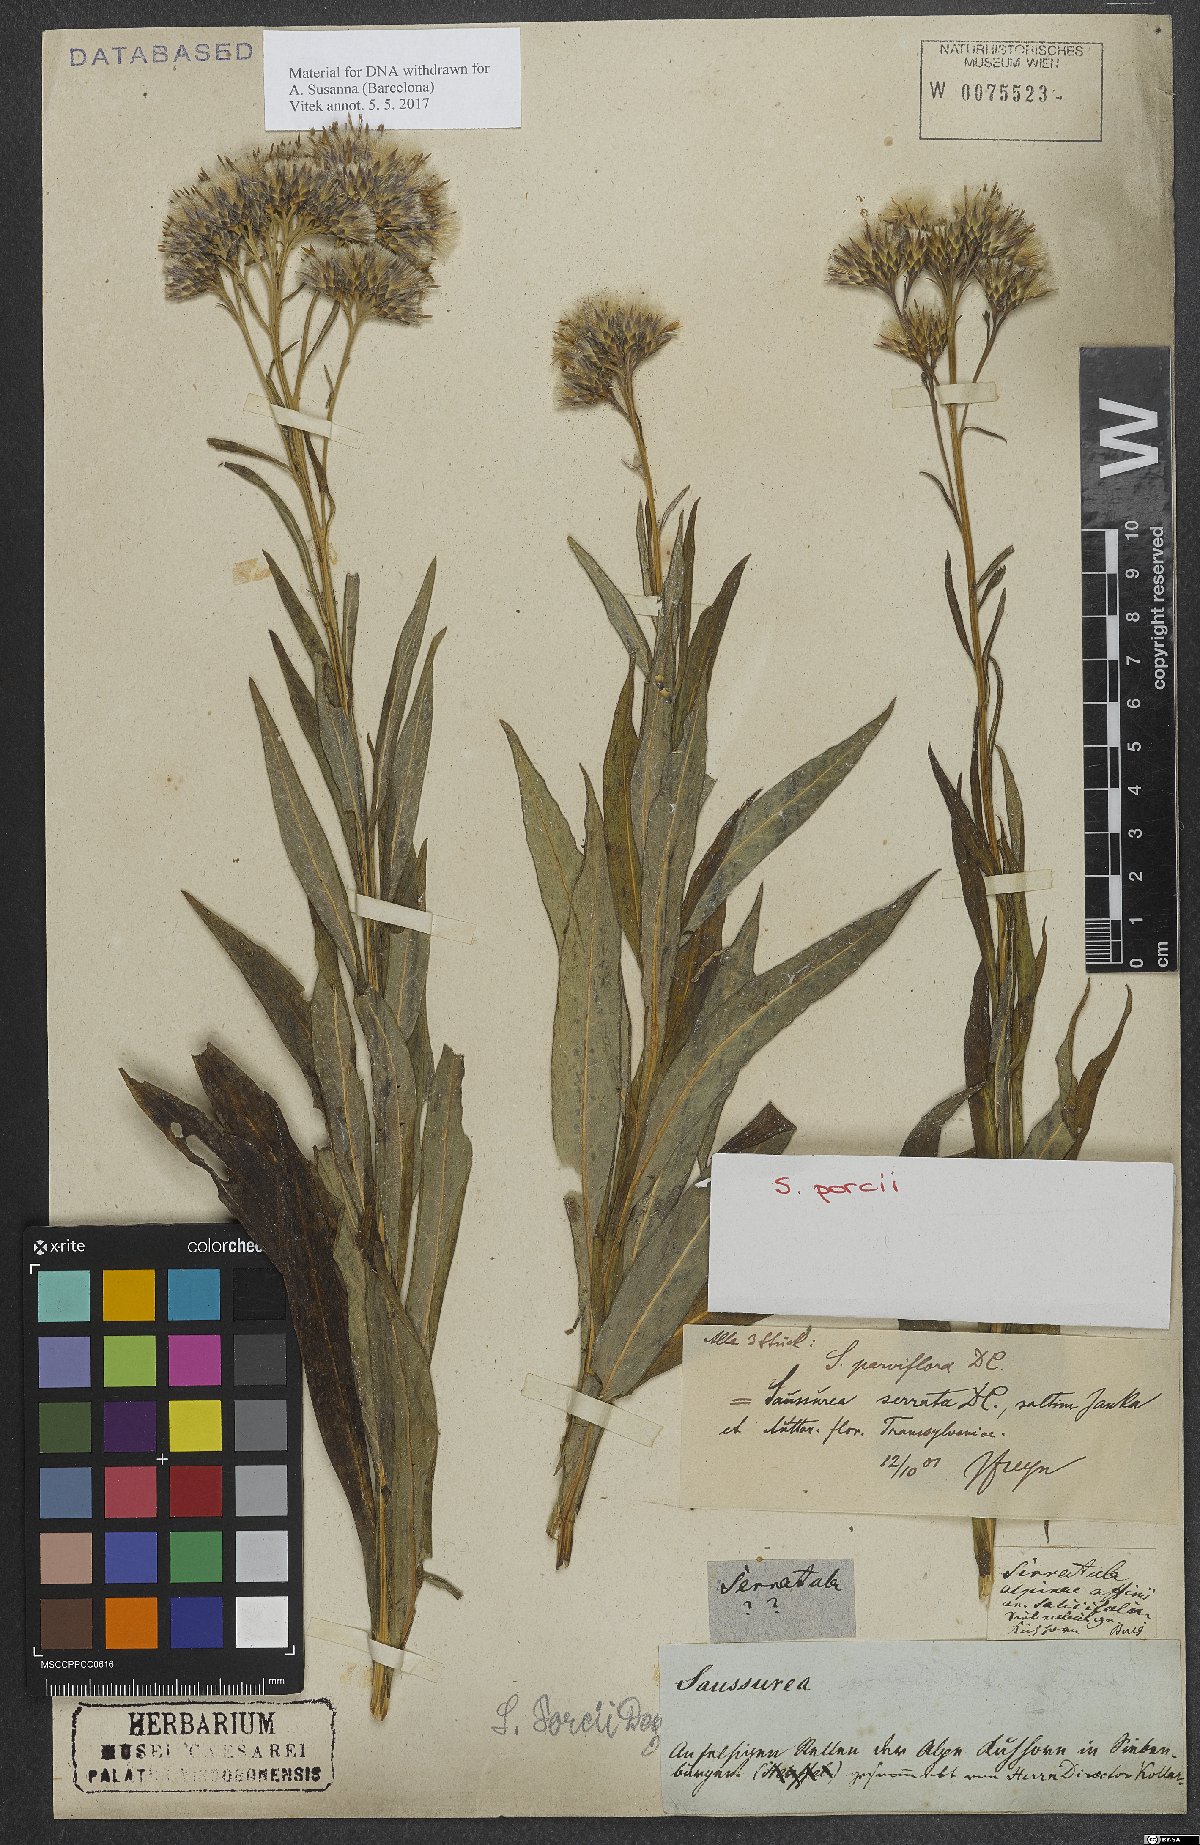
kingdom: Plantae
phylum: Tracheophyta
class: Magnoliopsida
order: Asterales
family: Asteraceae
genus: Saussurea
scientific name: Saussurea porcii
